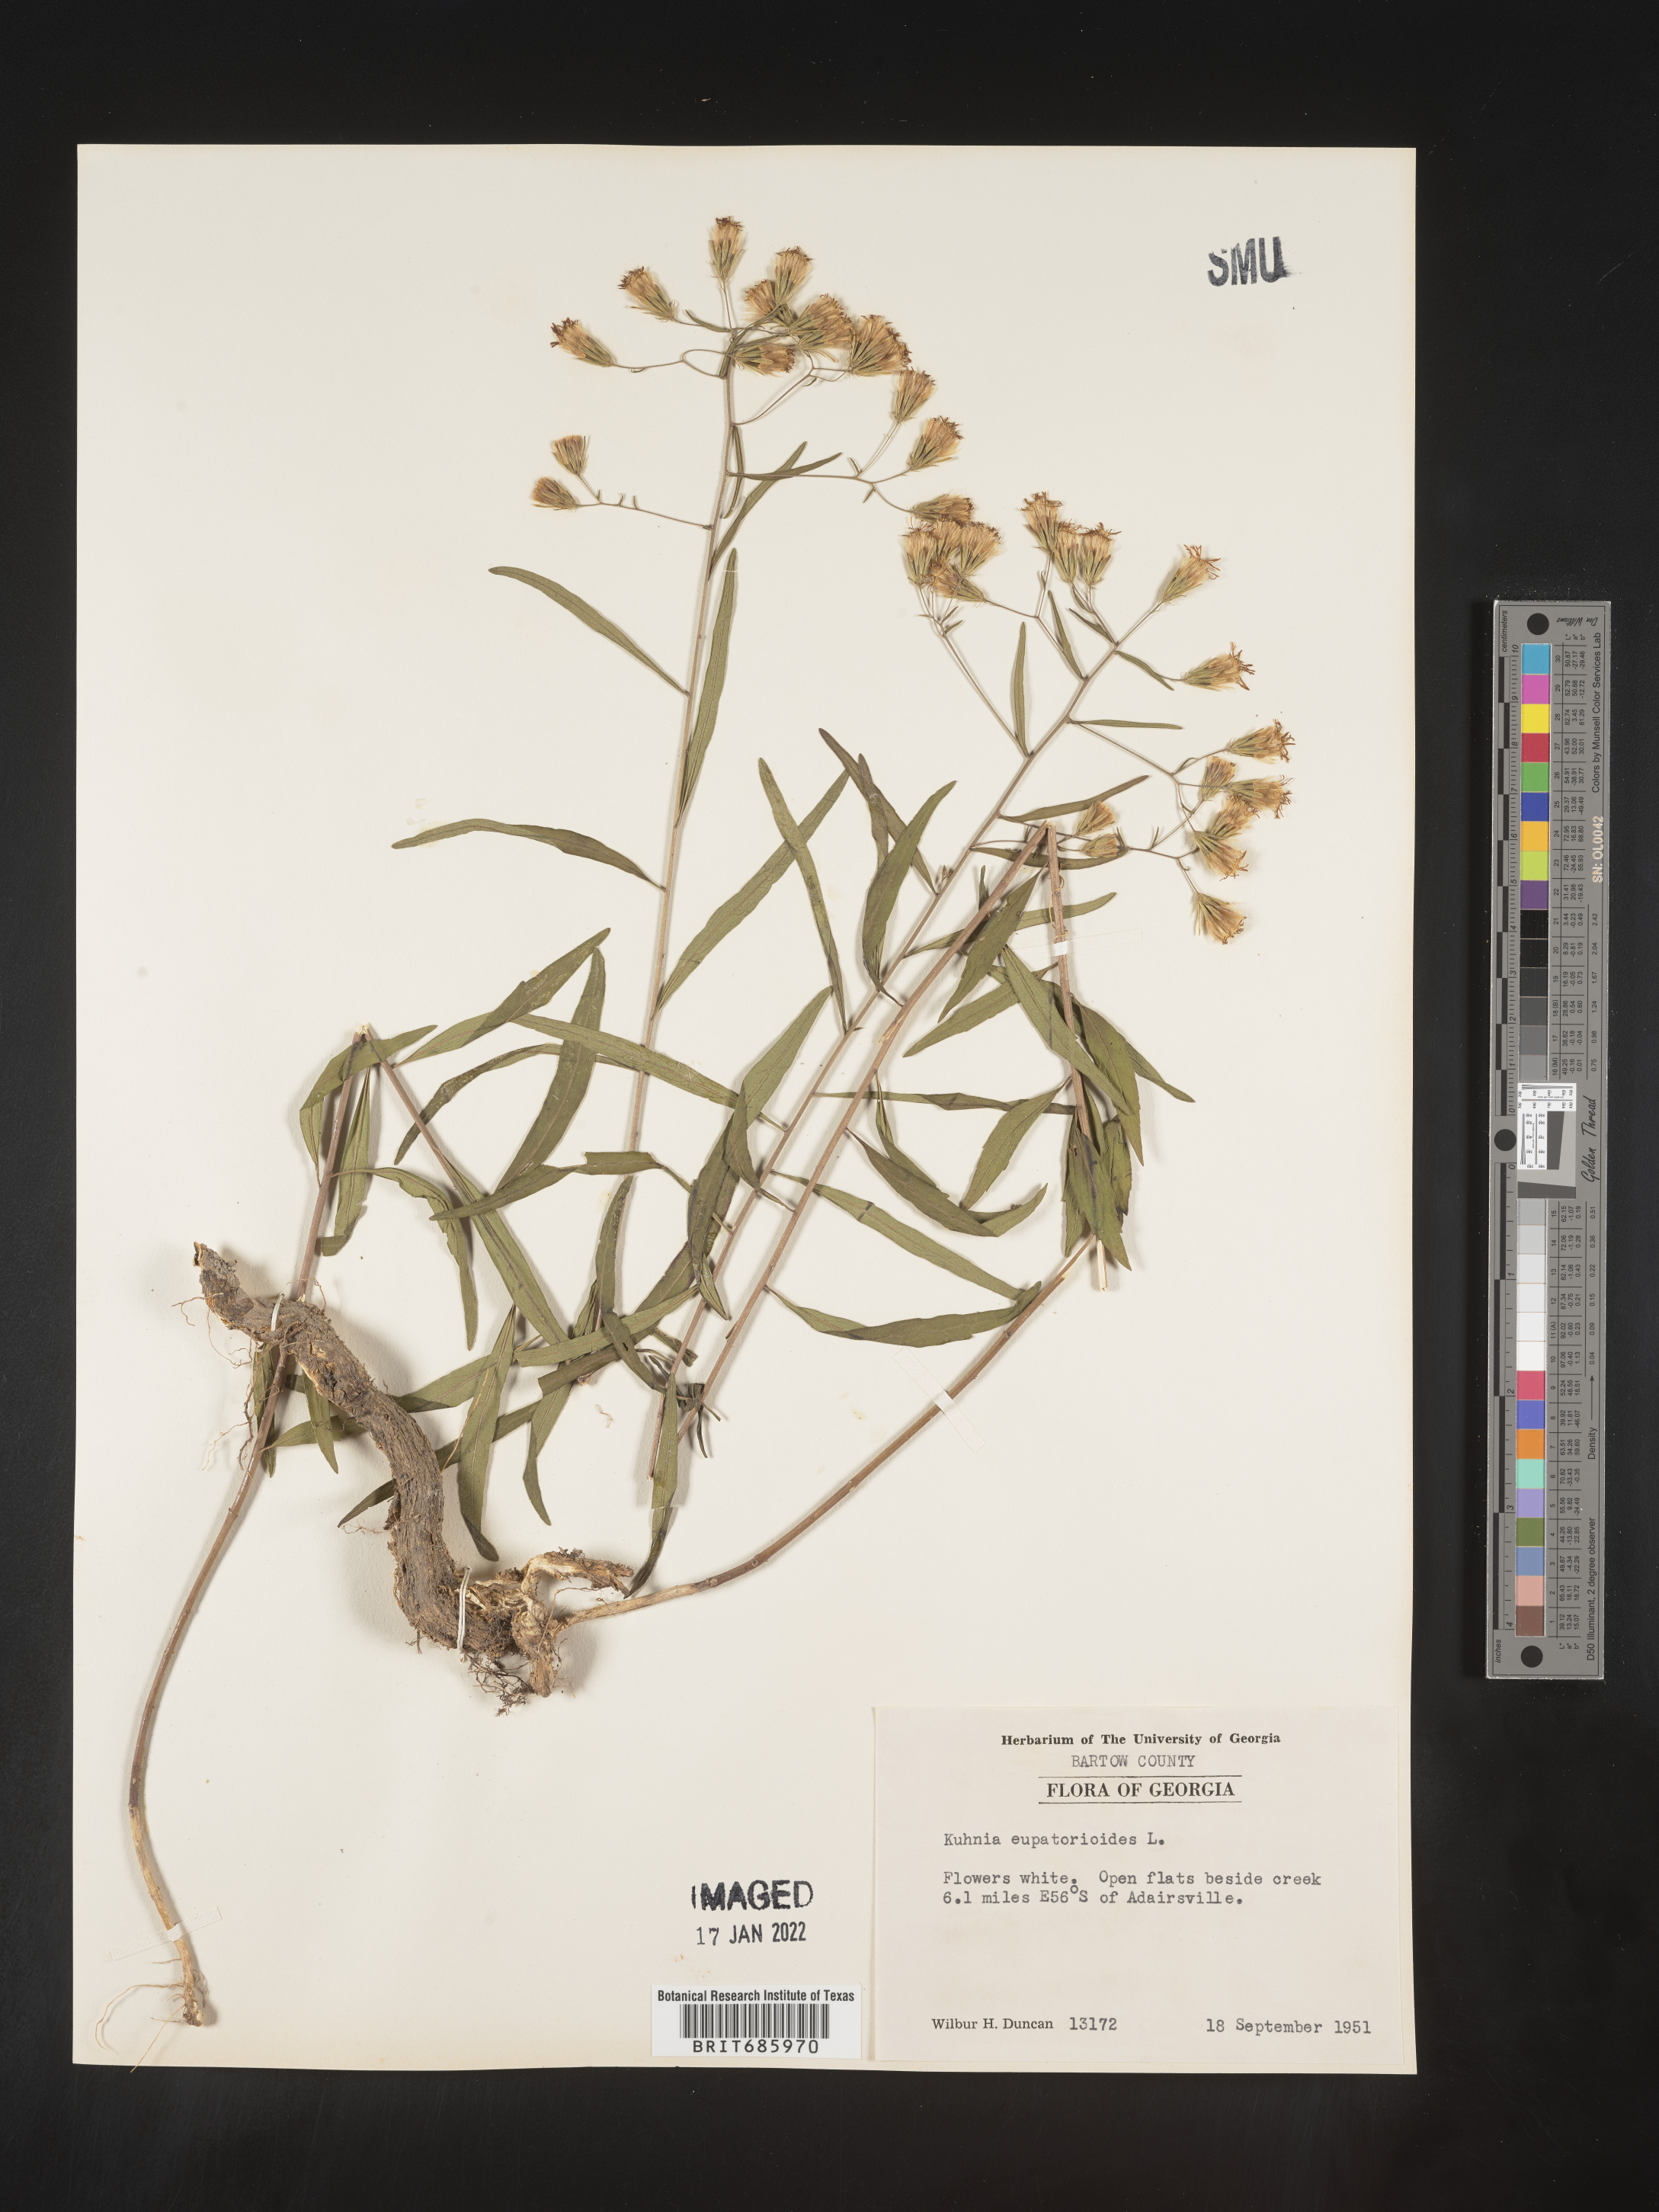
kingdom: Plantae
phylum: Tracheophyta
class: Magnoliopsida
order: Asterales
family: Asteraceae
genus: Brickellia
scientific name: Brickellia eupatorioides
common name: False boneset
